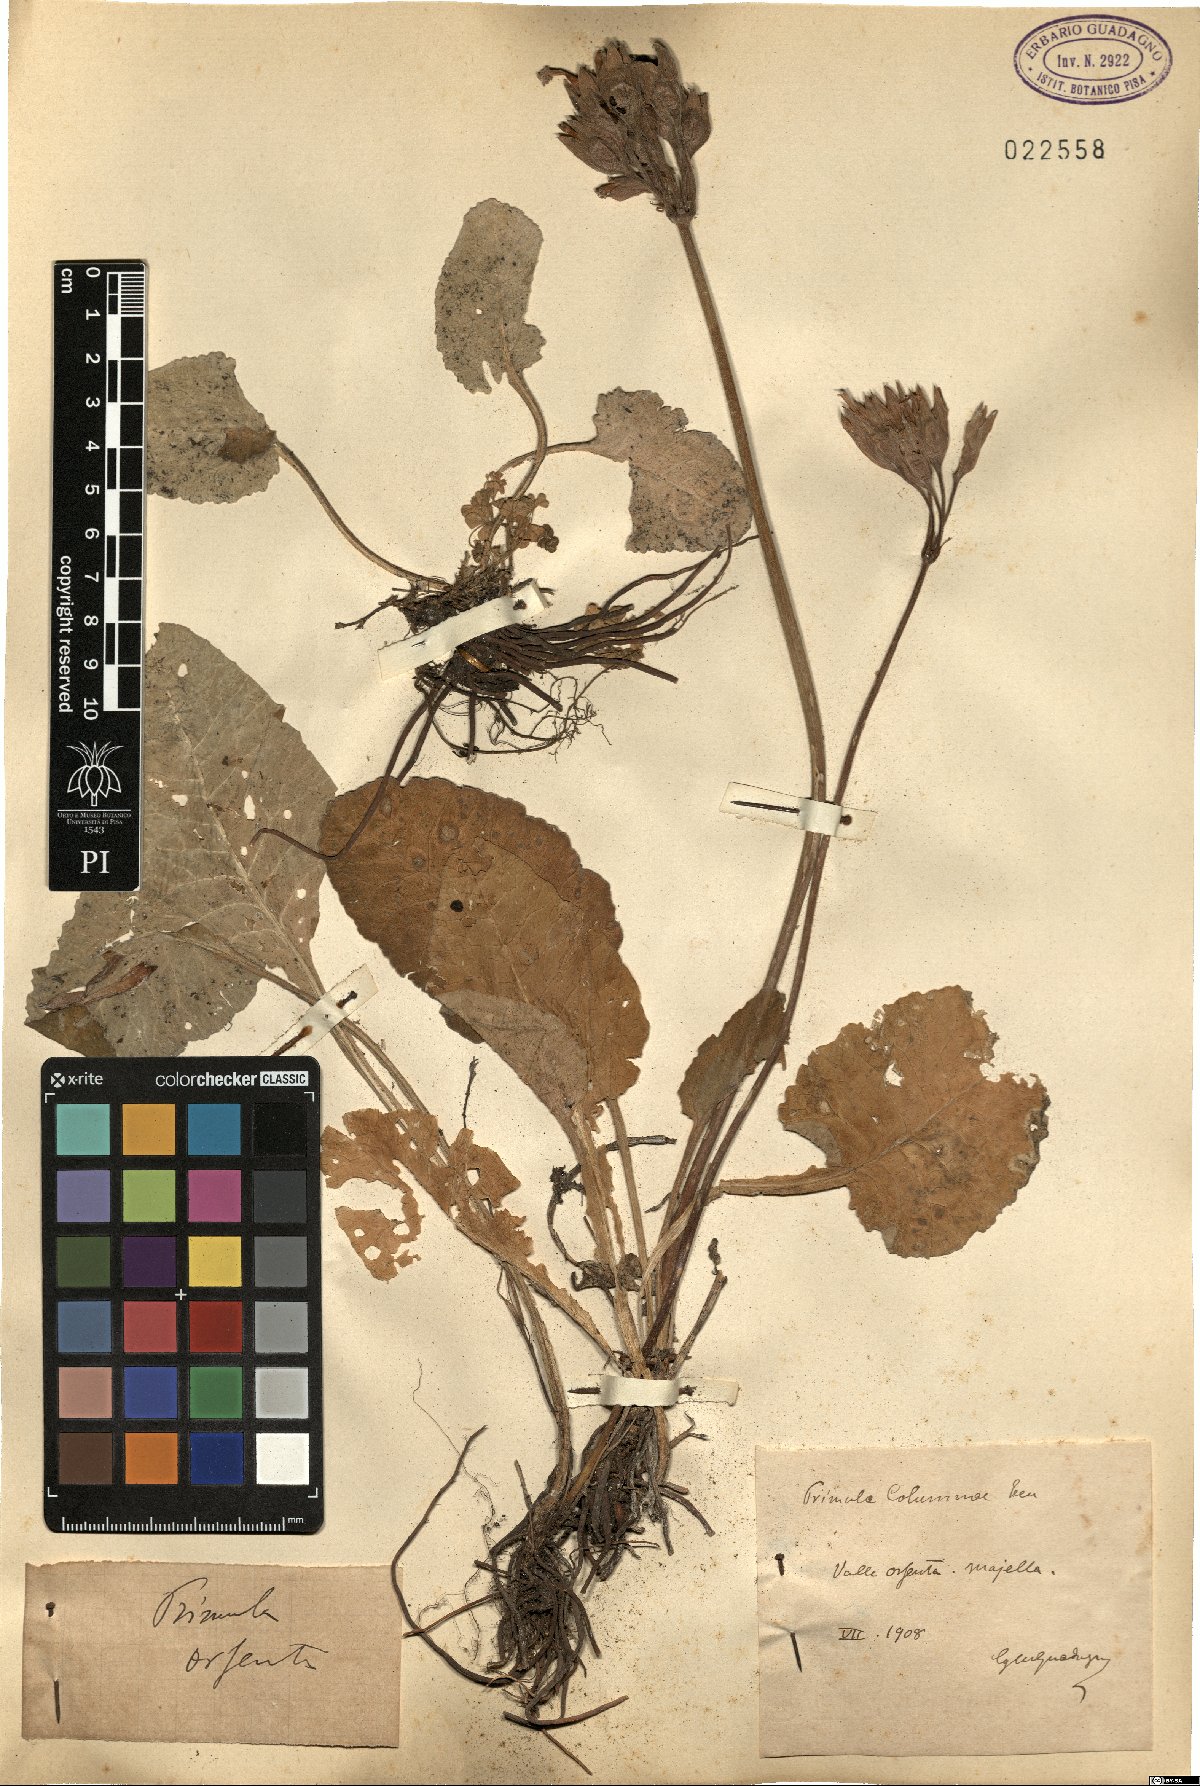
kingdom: Plantae
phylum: Tracheophyta
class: Magnoliopsida
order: Ericales
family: Primulaceae
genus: Primula
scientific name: Primula veris
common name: Cowslip
